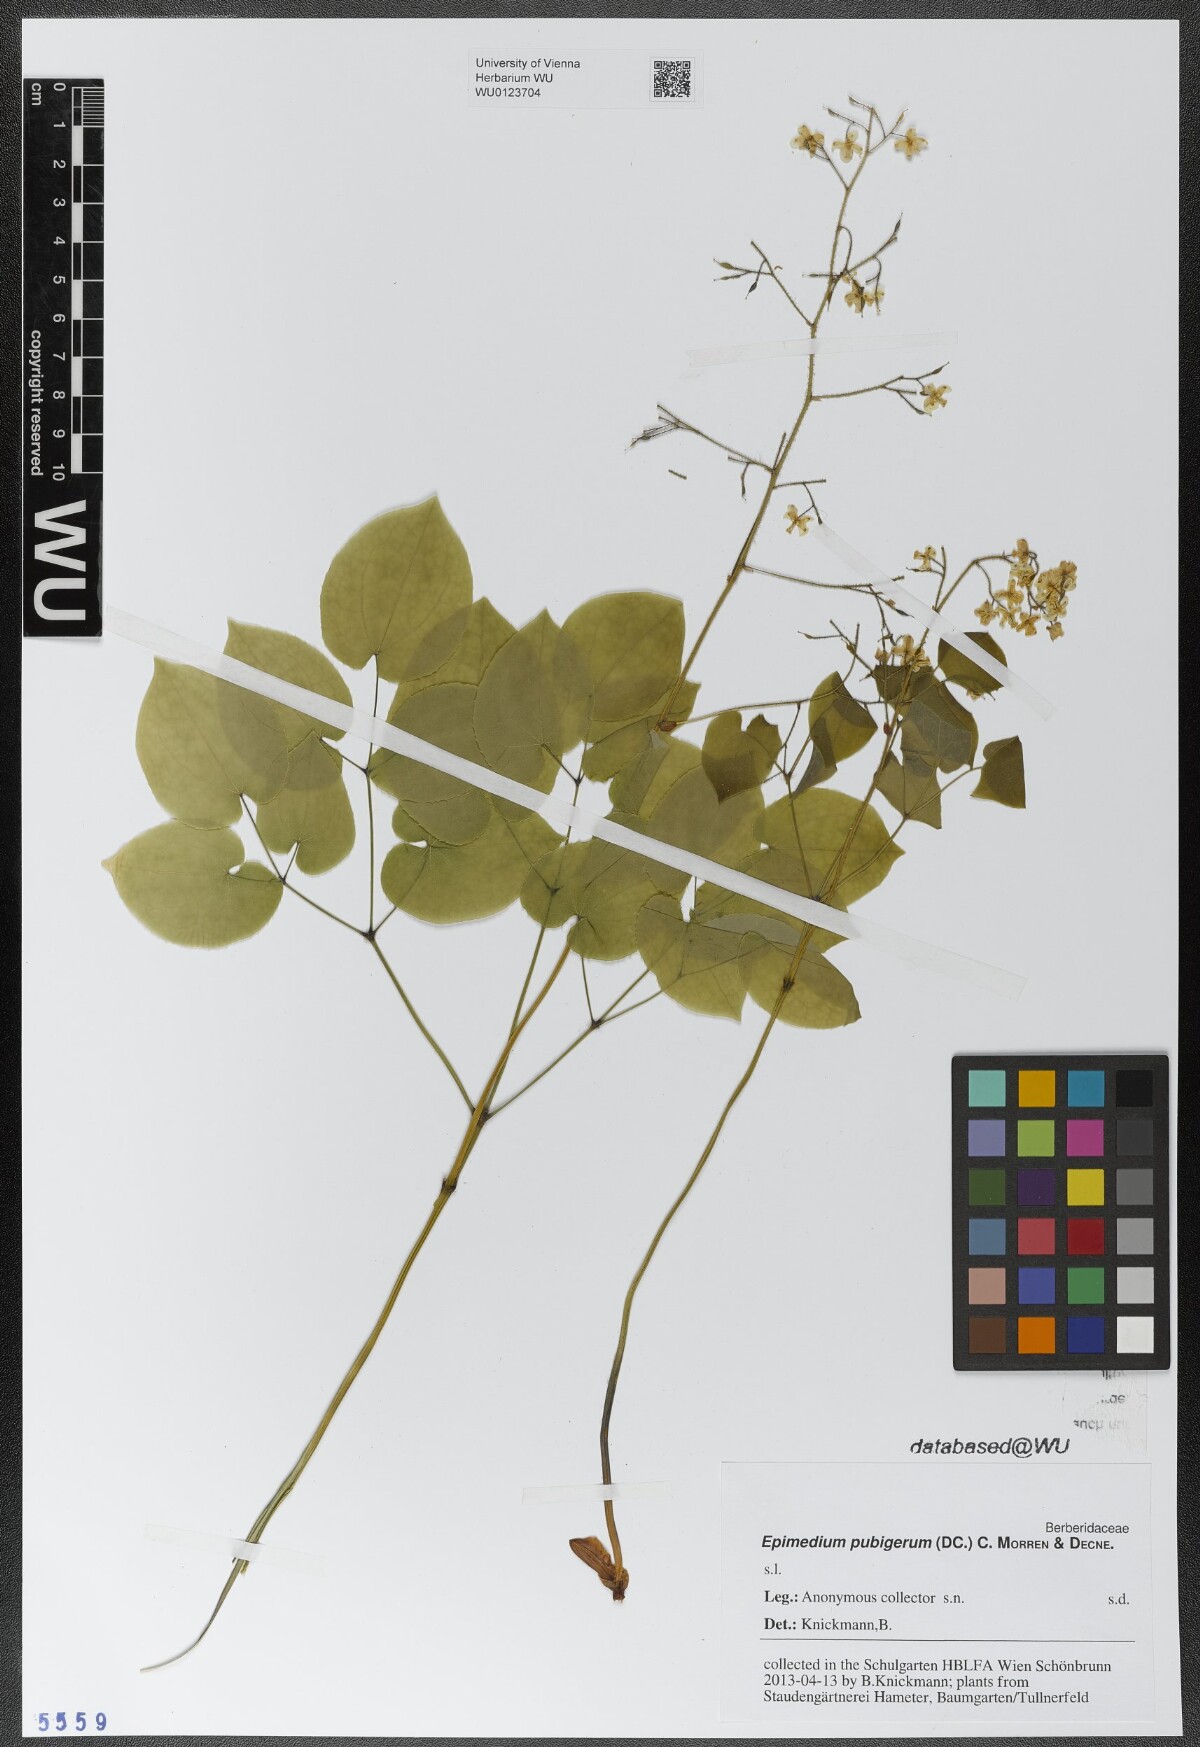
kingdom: Plantae
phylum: Tracheophyta
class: Magnoliopsida
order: Ranunculales
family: Berberidaceae
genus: Epimedium
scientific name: Epimedium pubigerum
